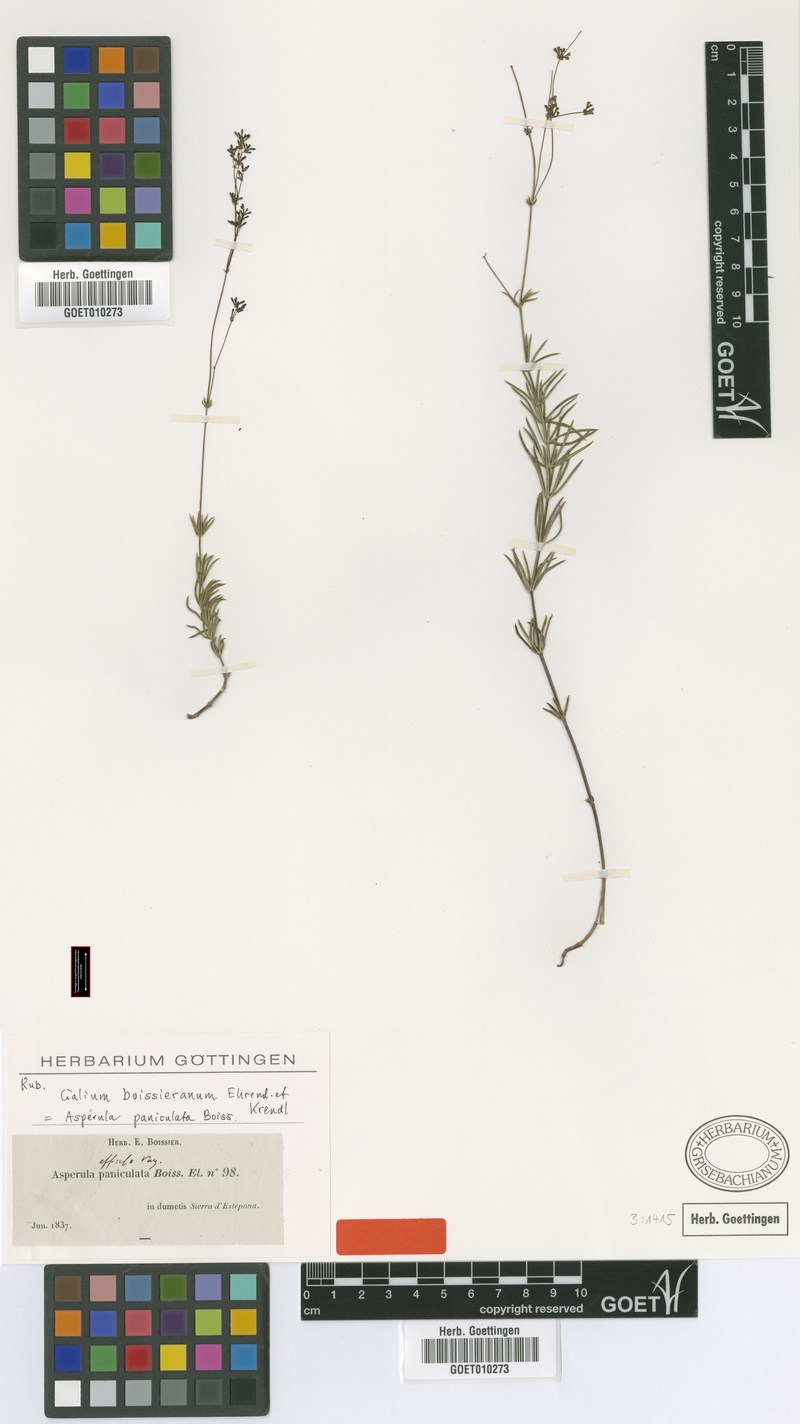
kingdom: Plantae
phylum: Tracheophyta
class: Magnoliopsida
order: Gentianales
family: Rubiaceae
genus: Galium
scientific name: Galium boissierianum
